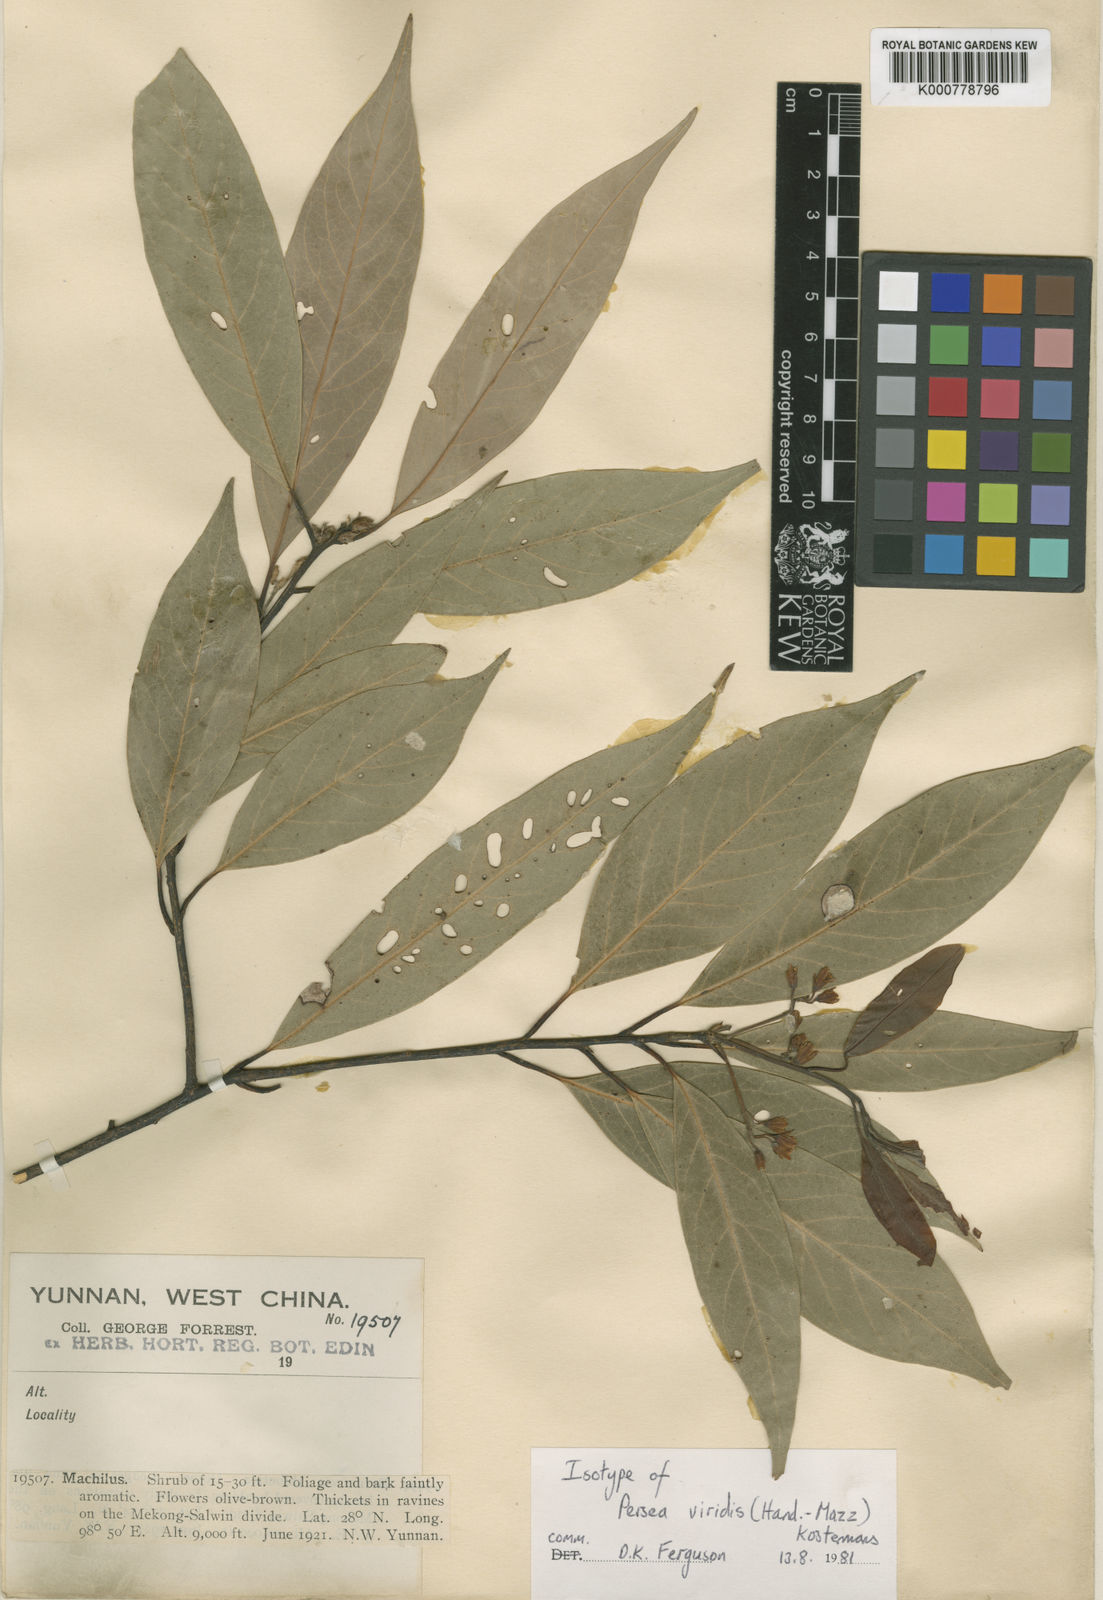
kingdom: Plantae
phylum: Tracheophyta
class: Magnoliopsida
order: Laurales
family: Lauraceae
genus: Machilus
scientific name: Machilus viridis
